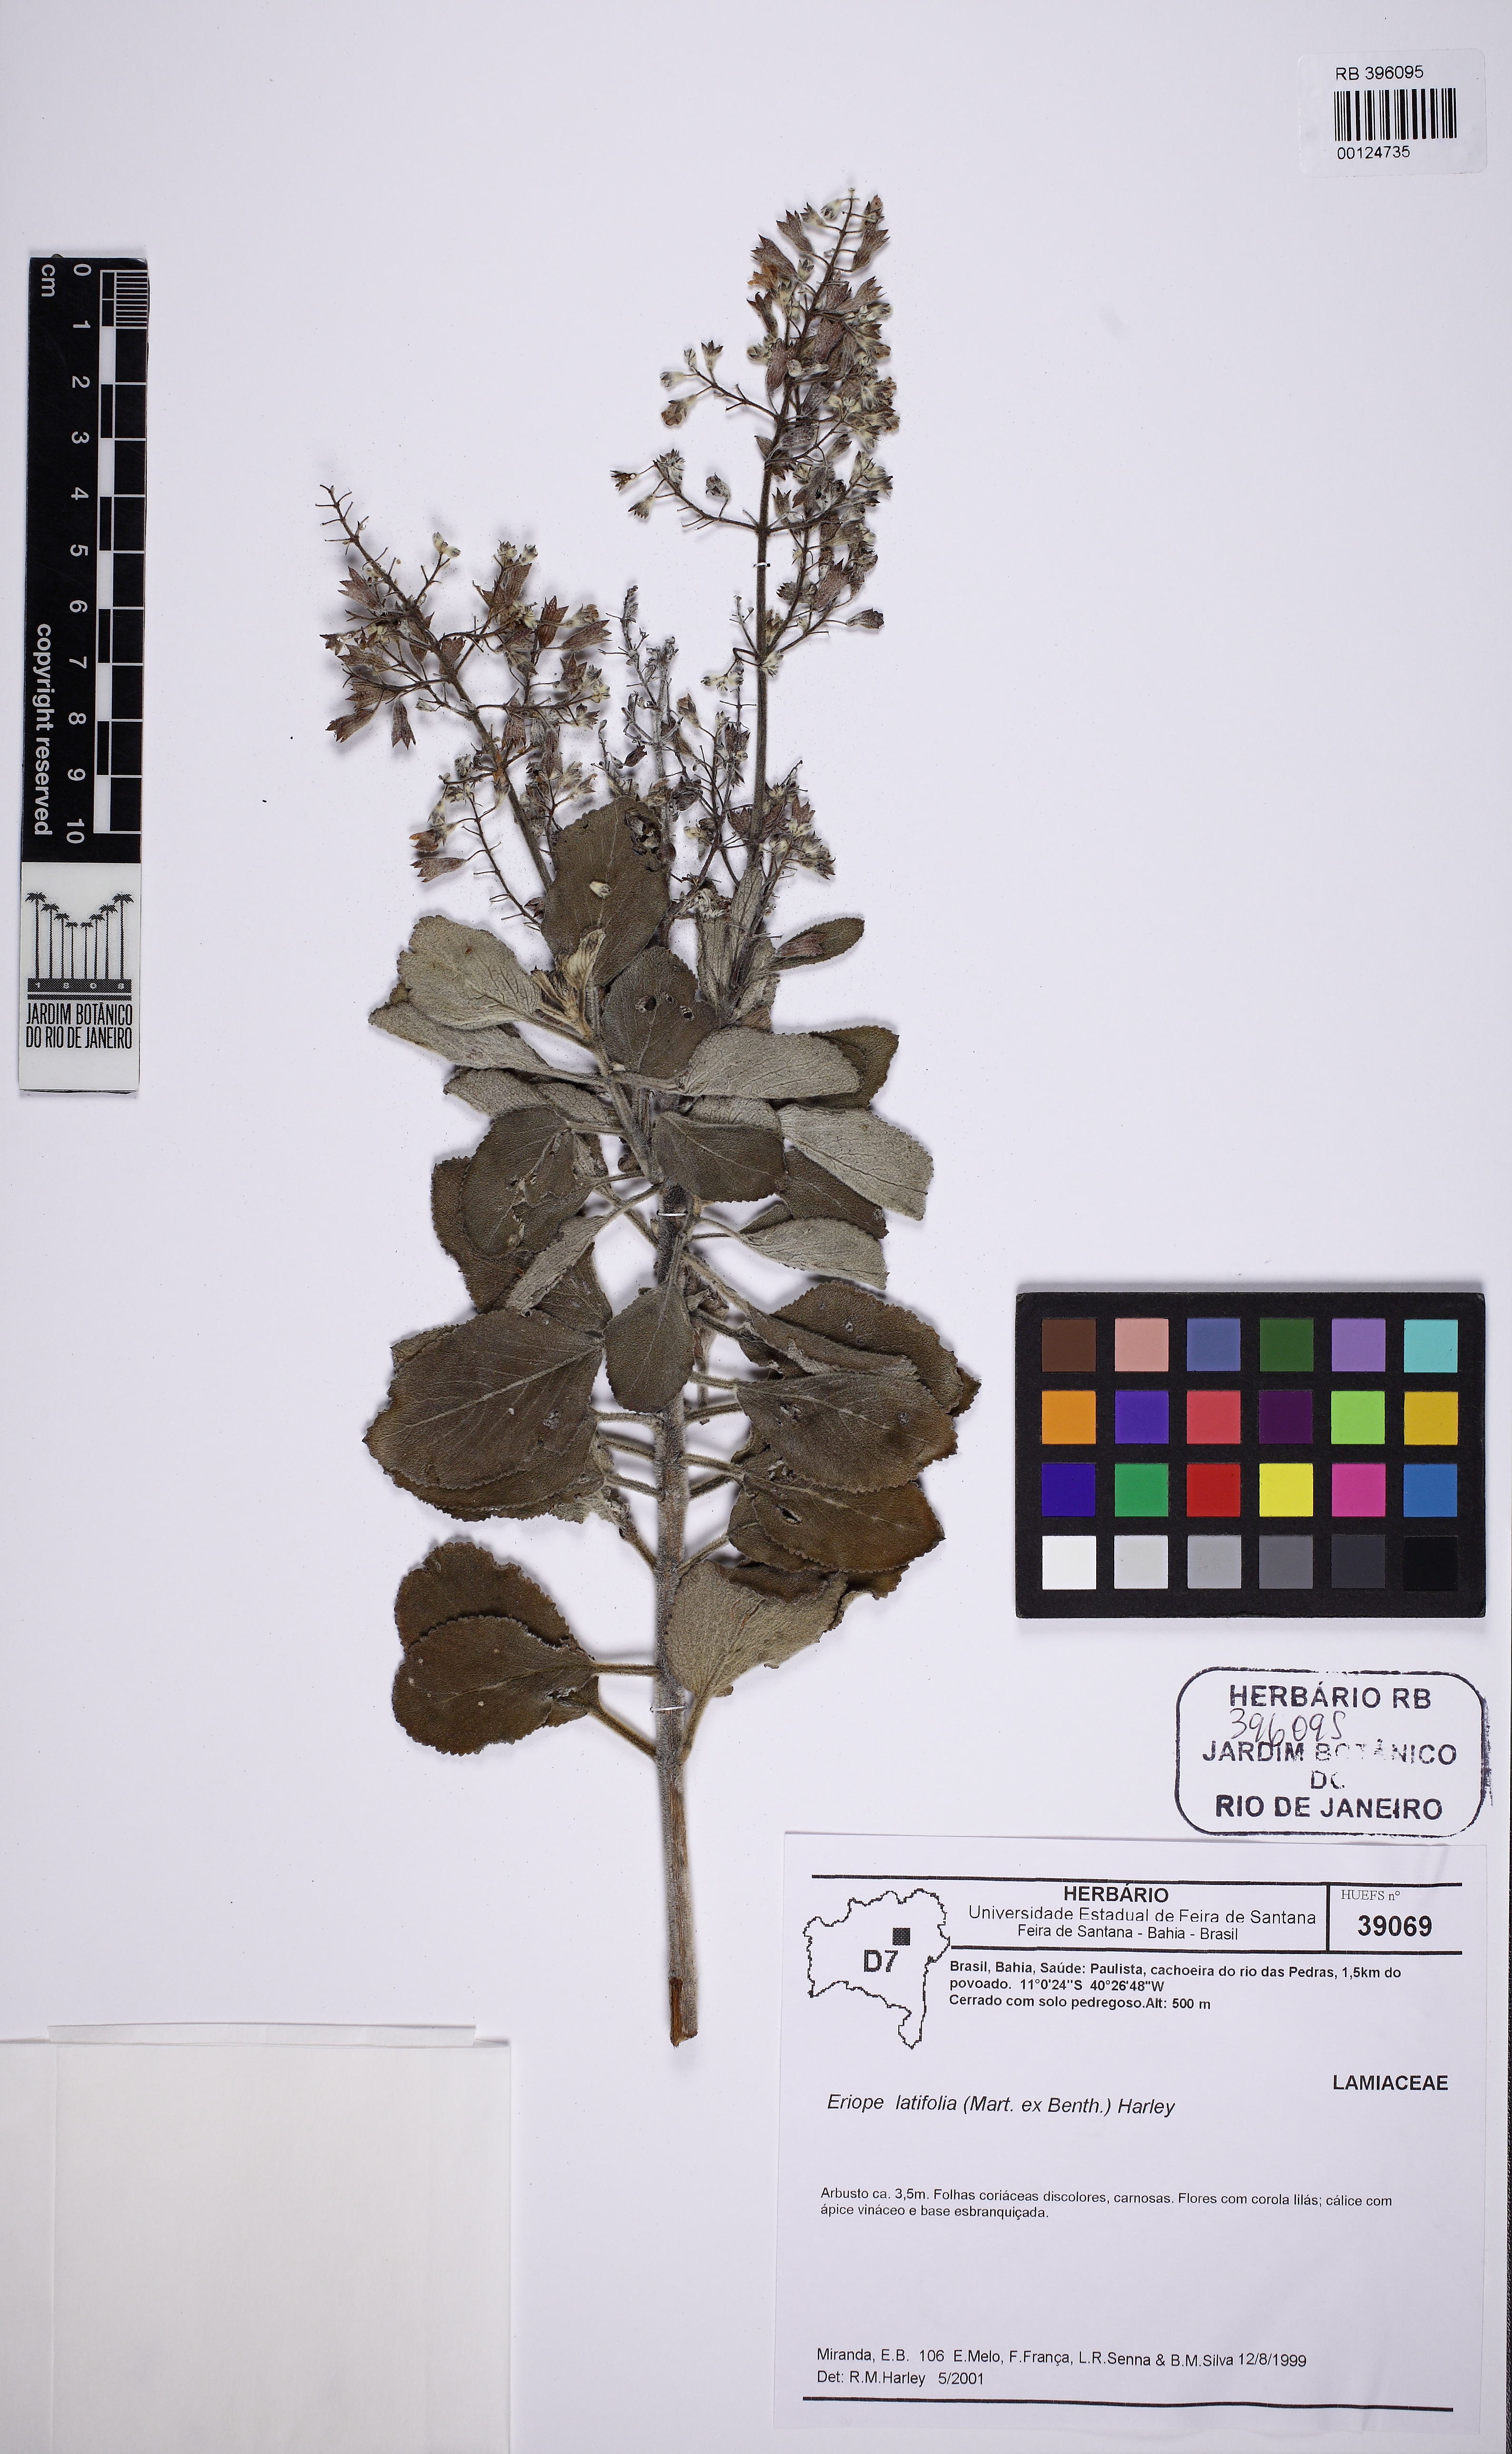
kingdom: Plantae
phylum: Tracheophyta
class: Magnoliopsida
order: Lamiales
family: Lamiaceae
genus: Eriope
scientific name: Eriope latifolia
